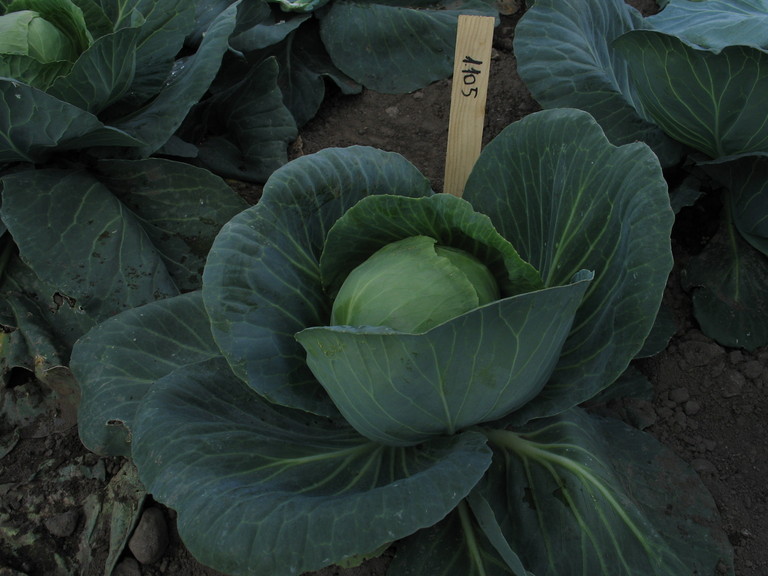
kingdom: Plantae
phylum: Tracheophyta
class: Magnoliopsida
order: Brassicales
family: Brassicaceae
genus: Brassica
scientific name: Brassica oleracea
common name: Cabbage
